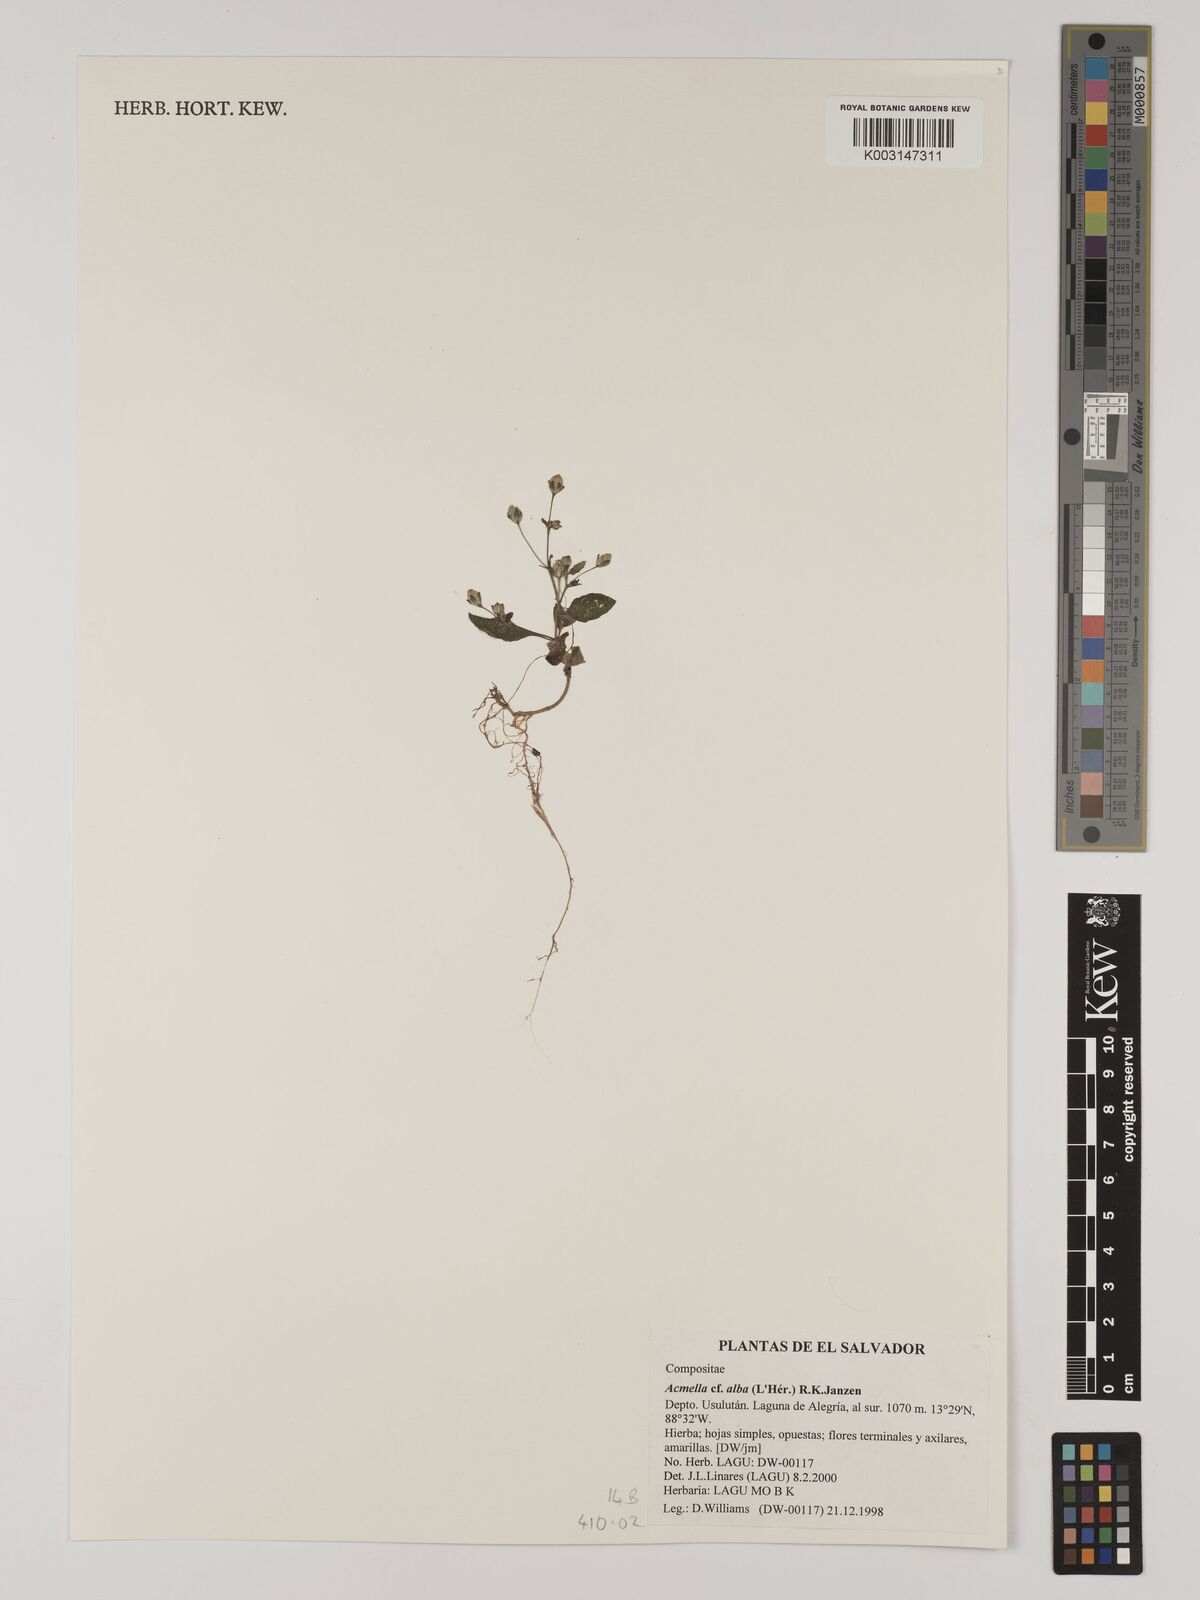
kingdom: Plantae
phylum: Tracheophyta
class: Magnoliopsida
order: Asterales
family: Asteraceae
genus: Acmella
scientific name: Acmella alba
